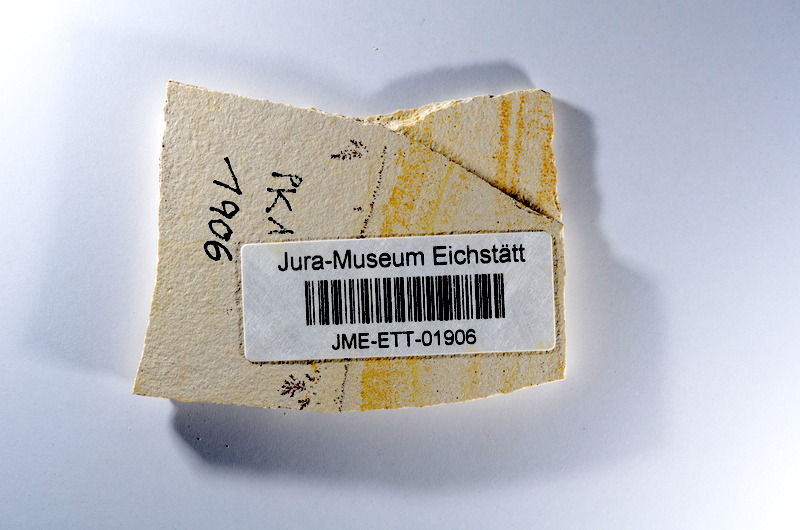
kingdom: Animalia
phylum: Chordata
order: Salmoniformes
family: Orthogonikleithridae
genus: Orthogonikleithrus
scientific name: Orthogonikleithrus hoelli
